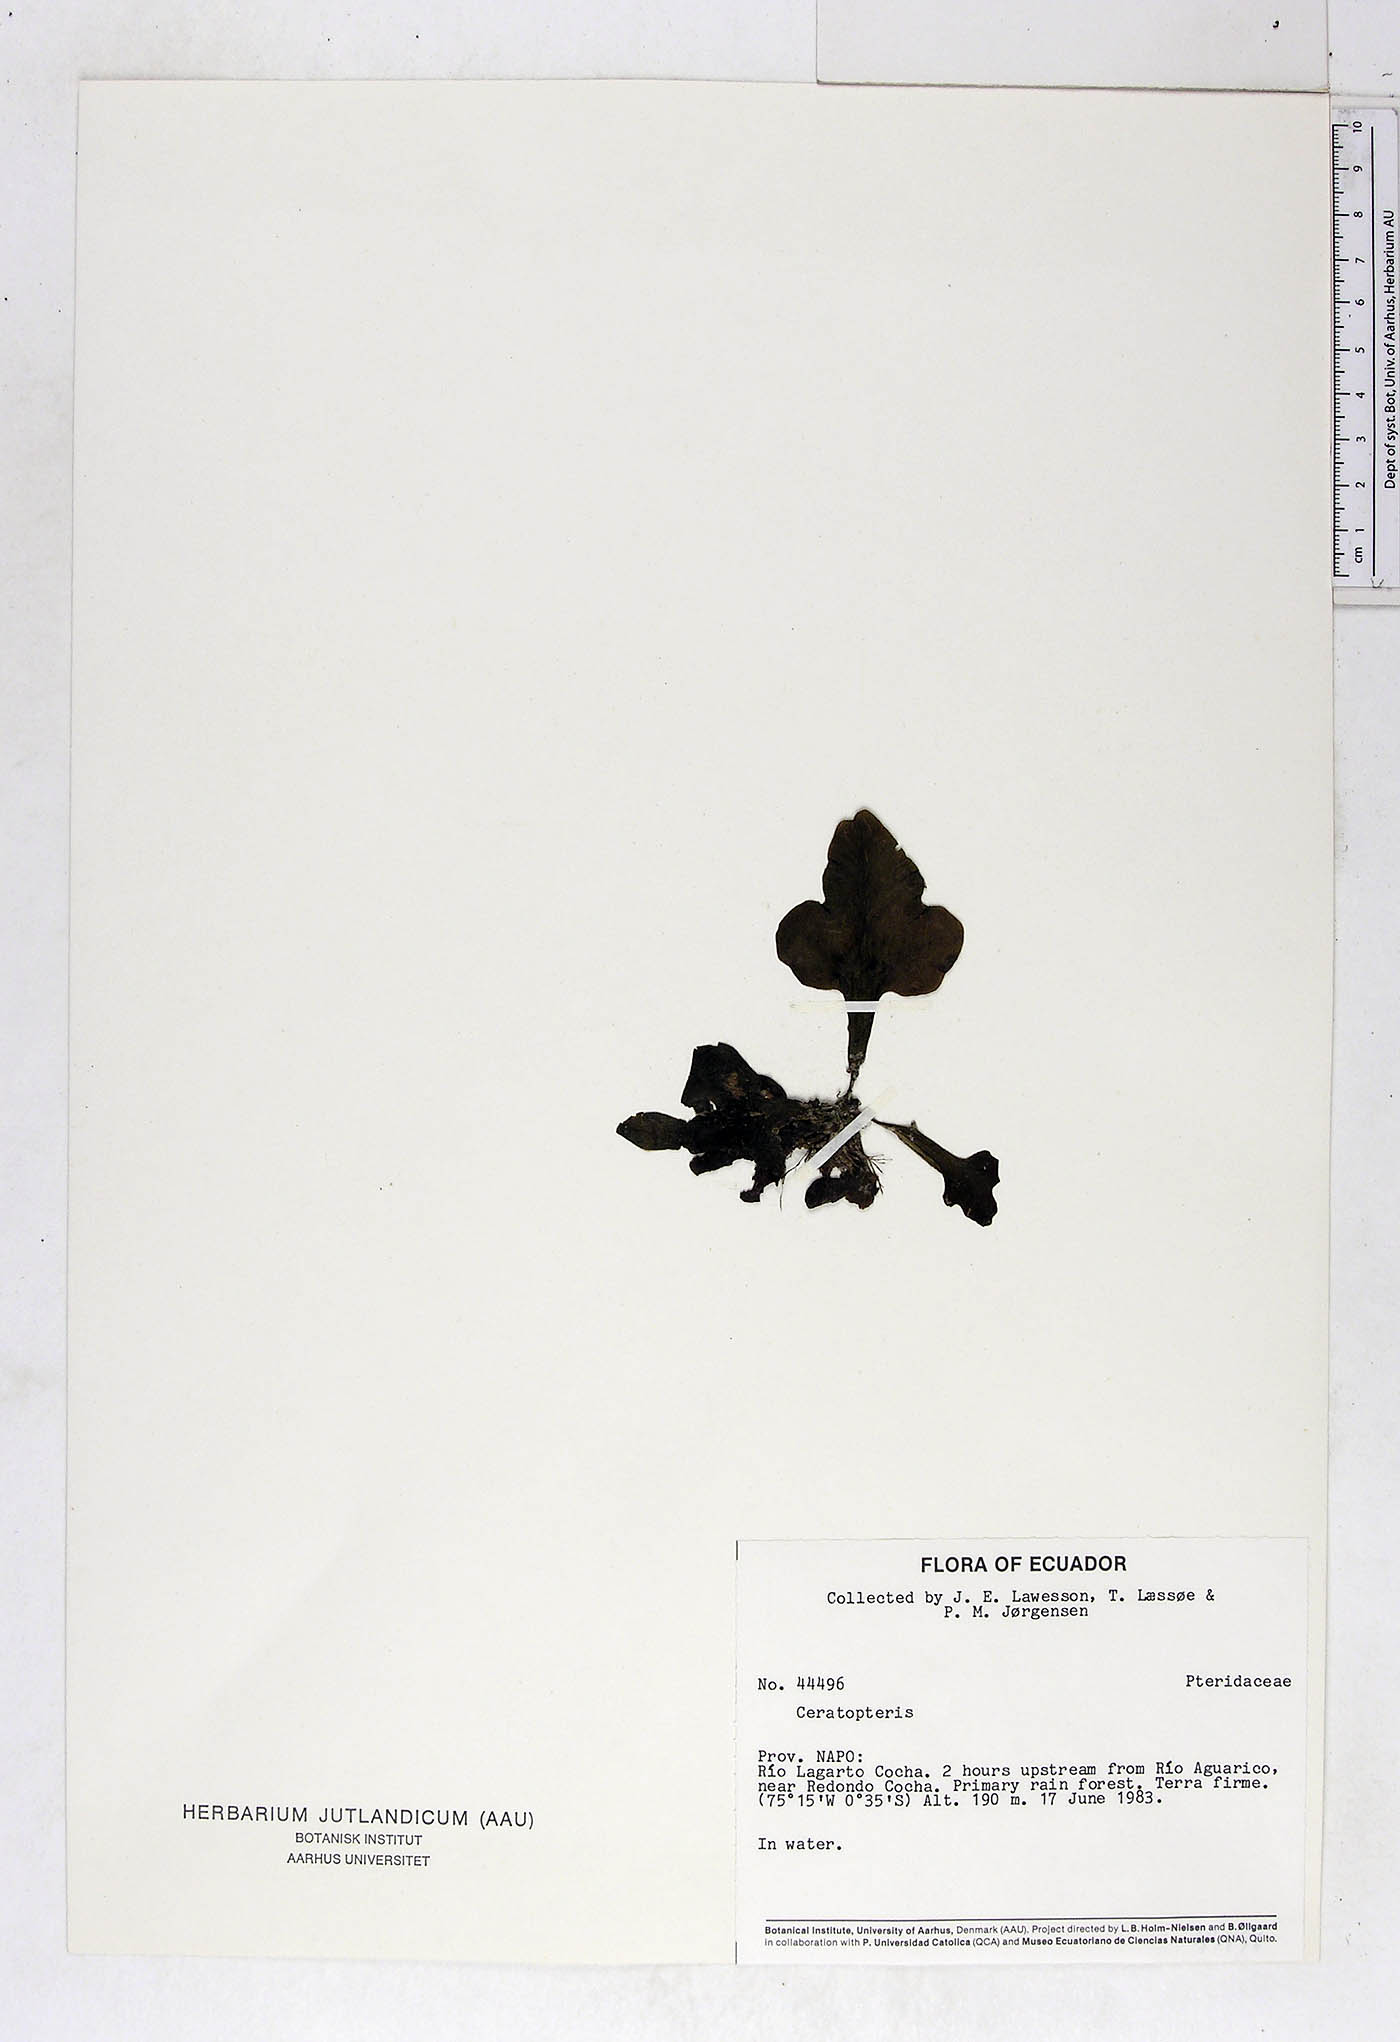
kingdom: Plantae
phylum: Tracheophyta
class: Polypodiopsida
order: Polypodiales
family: Pteridaceae
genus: Ceratopteris
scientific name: Ceratopteris pteridoides
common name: Floating fern
